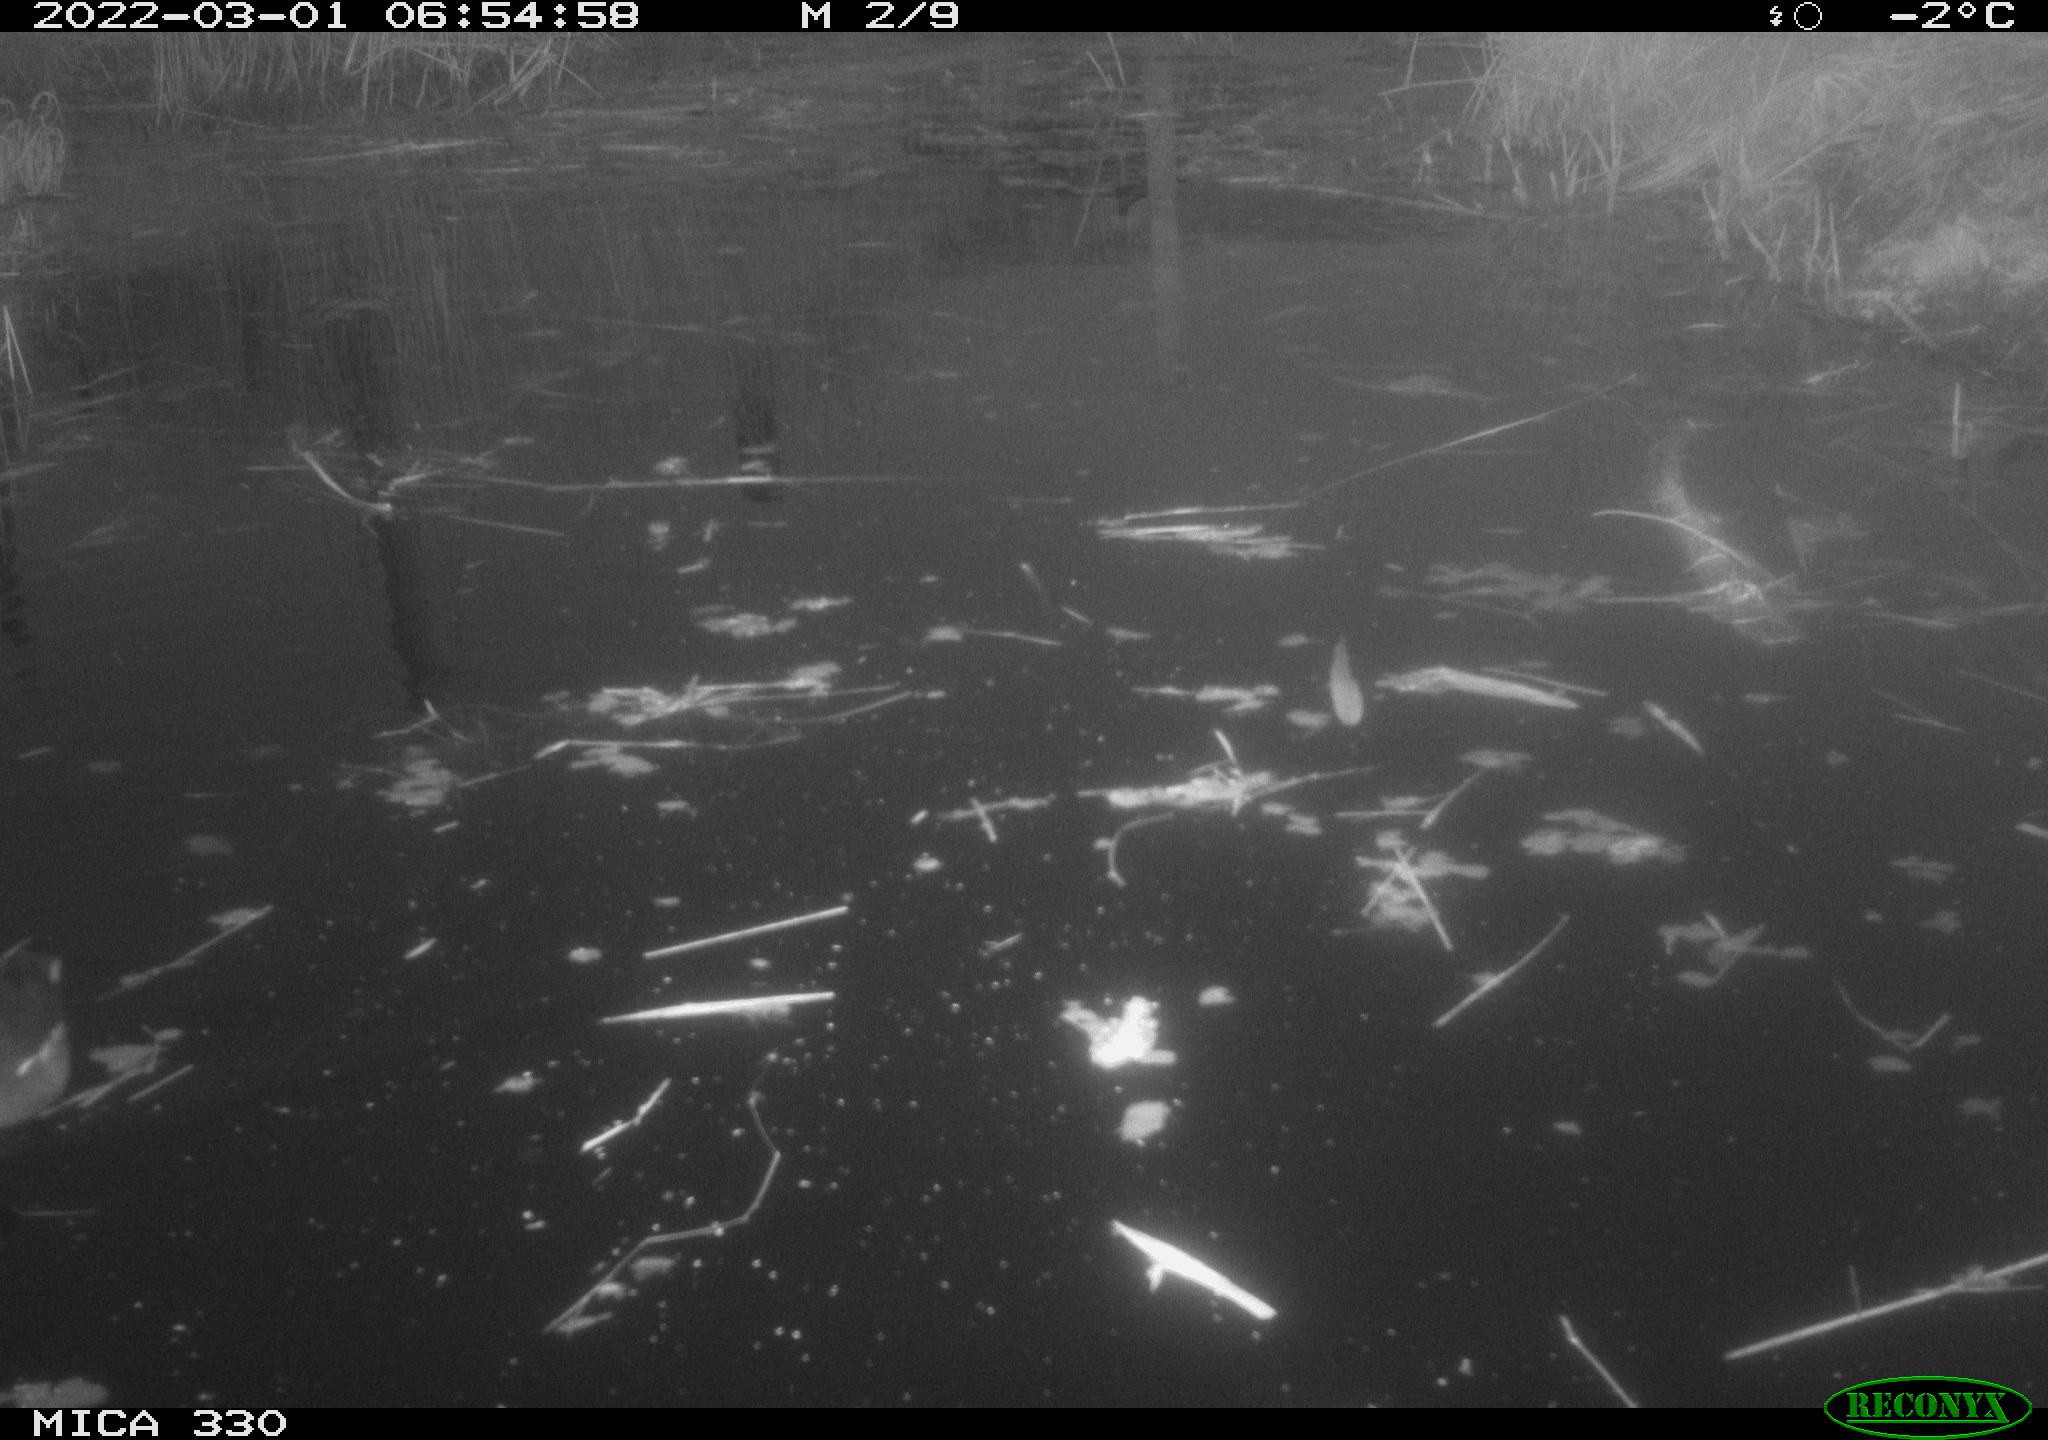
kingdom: Animalia
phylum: Chordata
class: Aves
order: Gruiformes
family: Rallidae
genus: Gallinula
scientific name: Gallinula chloropus
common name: Common moorhen
